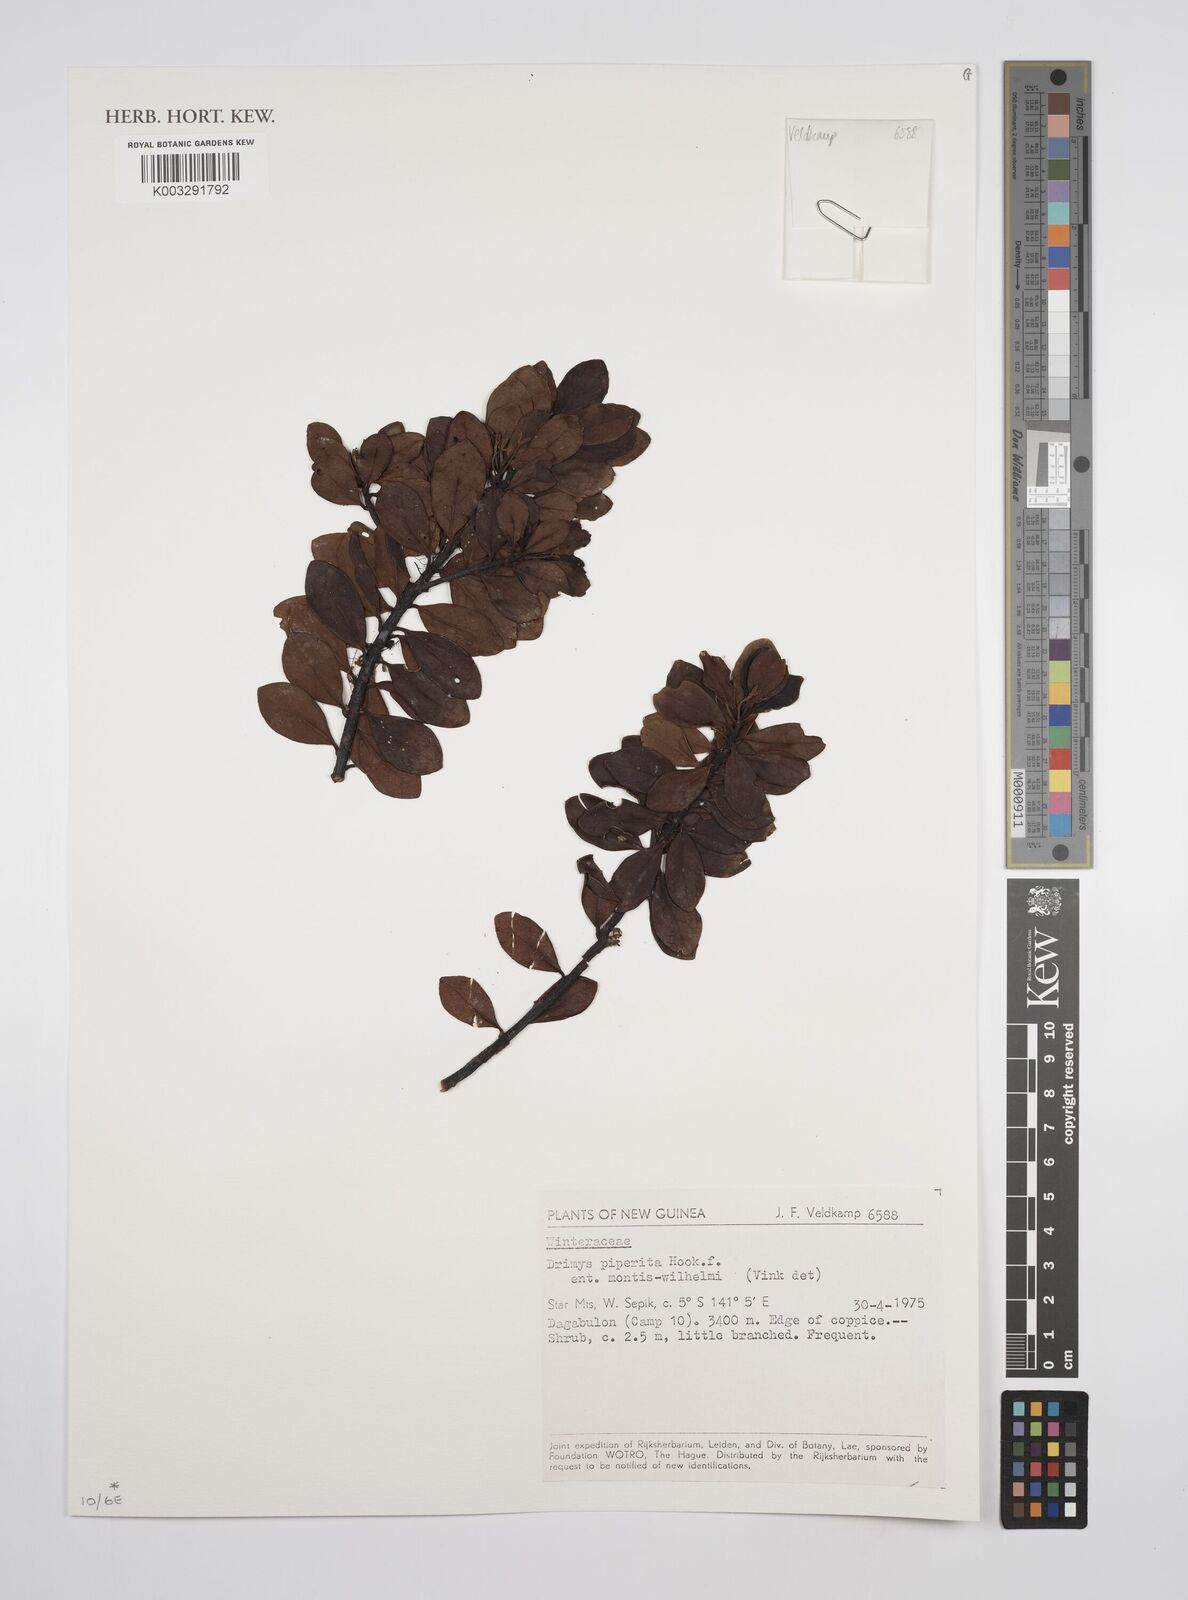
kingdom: Plantae
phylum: Tracheophyta
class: Magnoliopsida
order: Canellales
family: Winteraceae
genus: Drimys
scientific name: Drimys piperita
